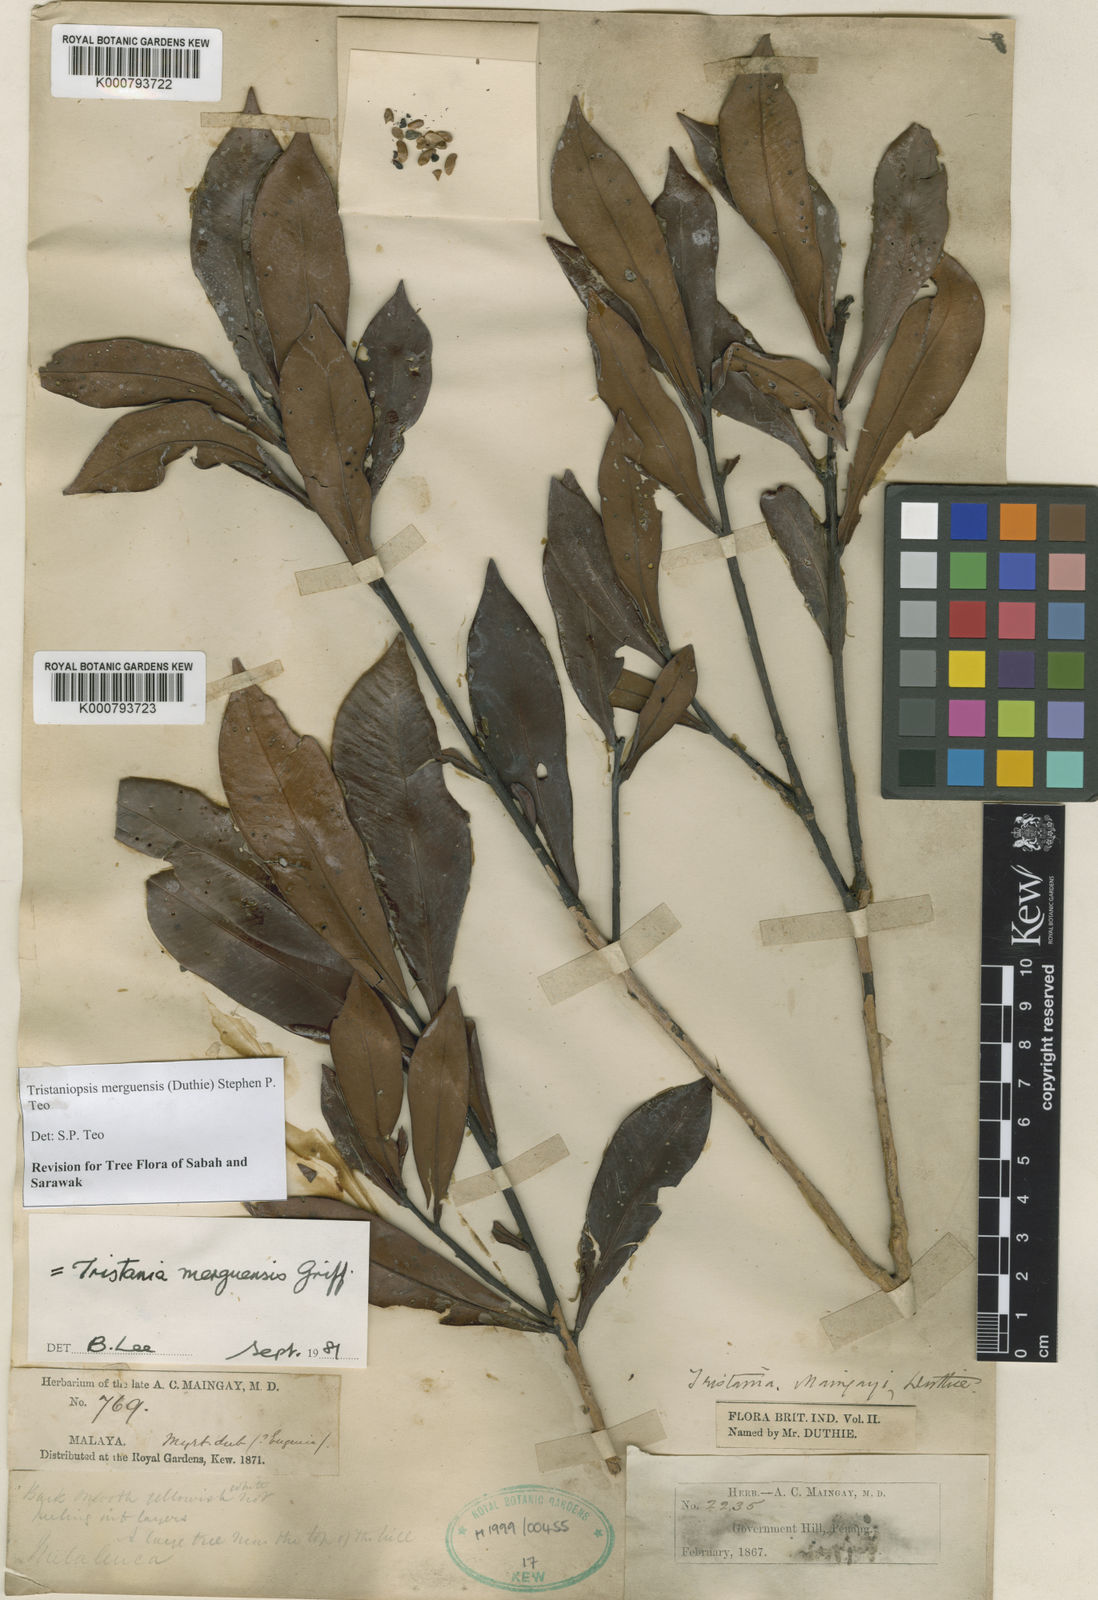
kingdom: Plantae
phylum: Tracheophyta
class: Magnoliopsida
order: Myrtales
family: Myrtaceae
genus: Tristaniopsis
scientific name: Tristaniopsis merguensis
